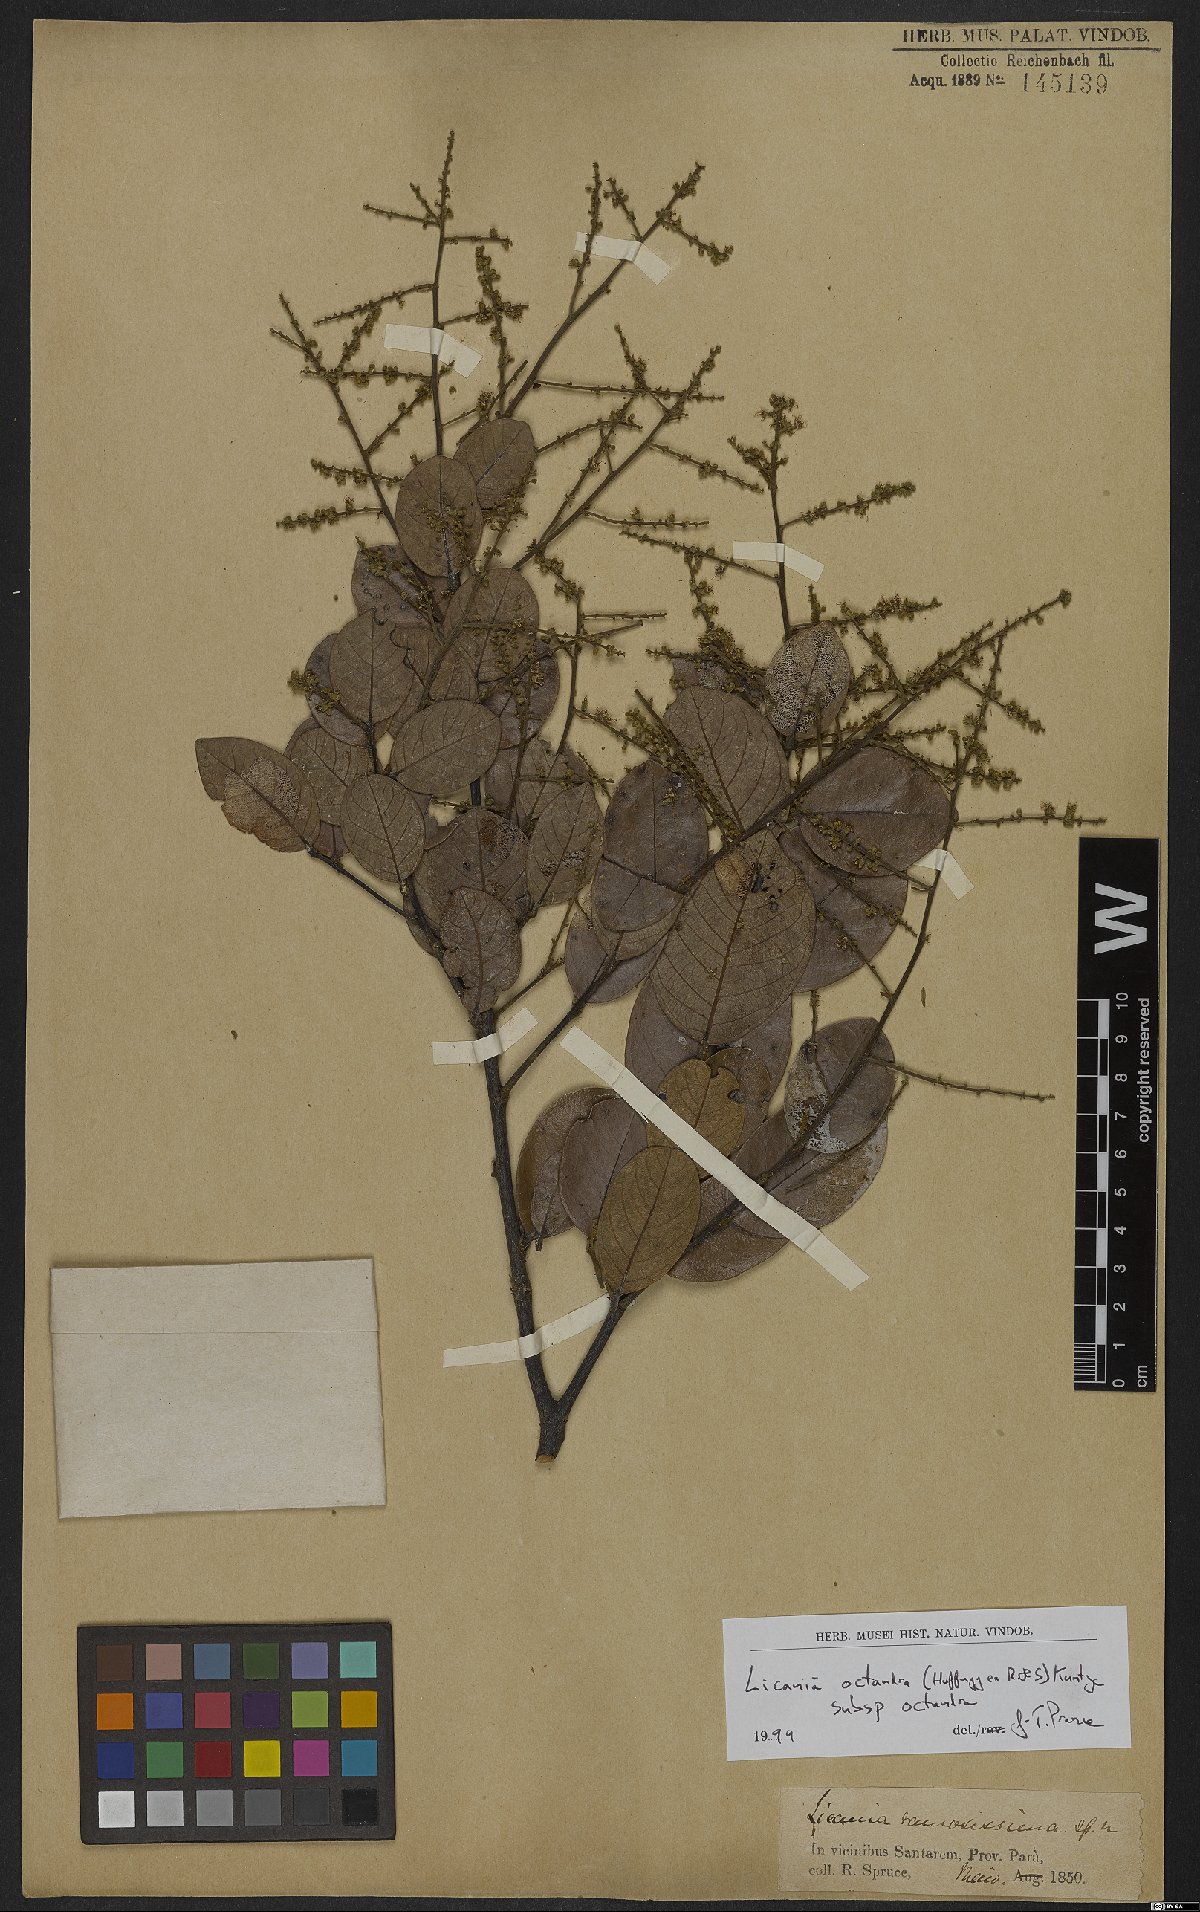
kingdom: Plantae
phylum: Tracheophyta
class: Magnoliopsida
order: Malpighiales
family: Chrysobalanaceae
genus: Leptobalanus
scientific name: Leptobalanus octandrus
